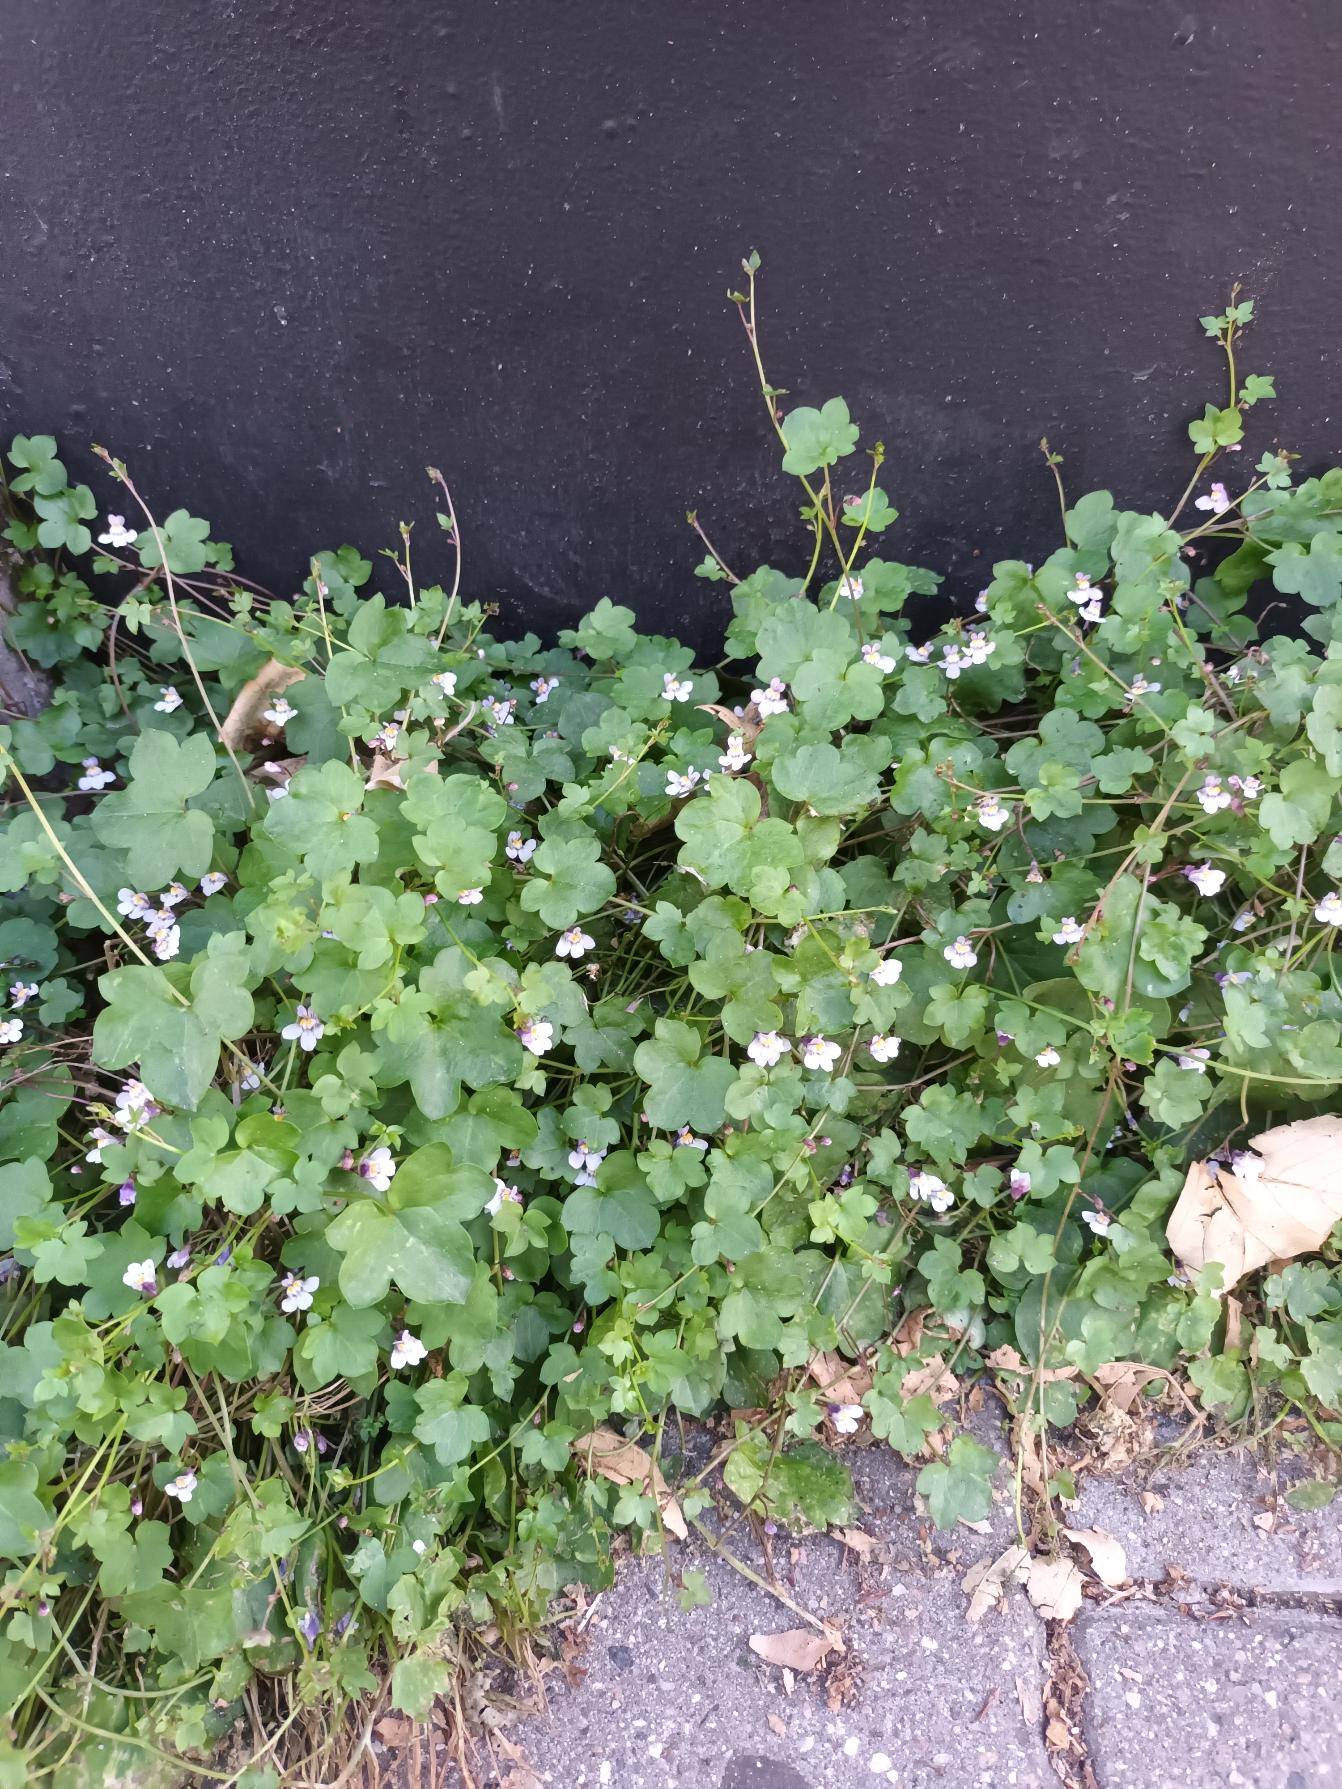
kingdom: Plantae
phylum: Tracheophyta
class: Magnoliopsida
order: Lamiales
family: Plantaginaceae
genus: Cymbalaria
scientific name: Cymbalaria muralis
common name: Vedbend-torskemund
